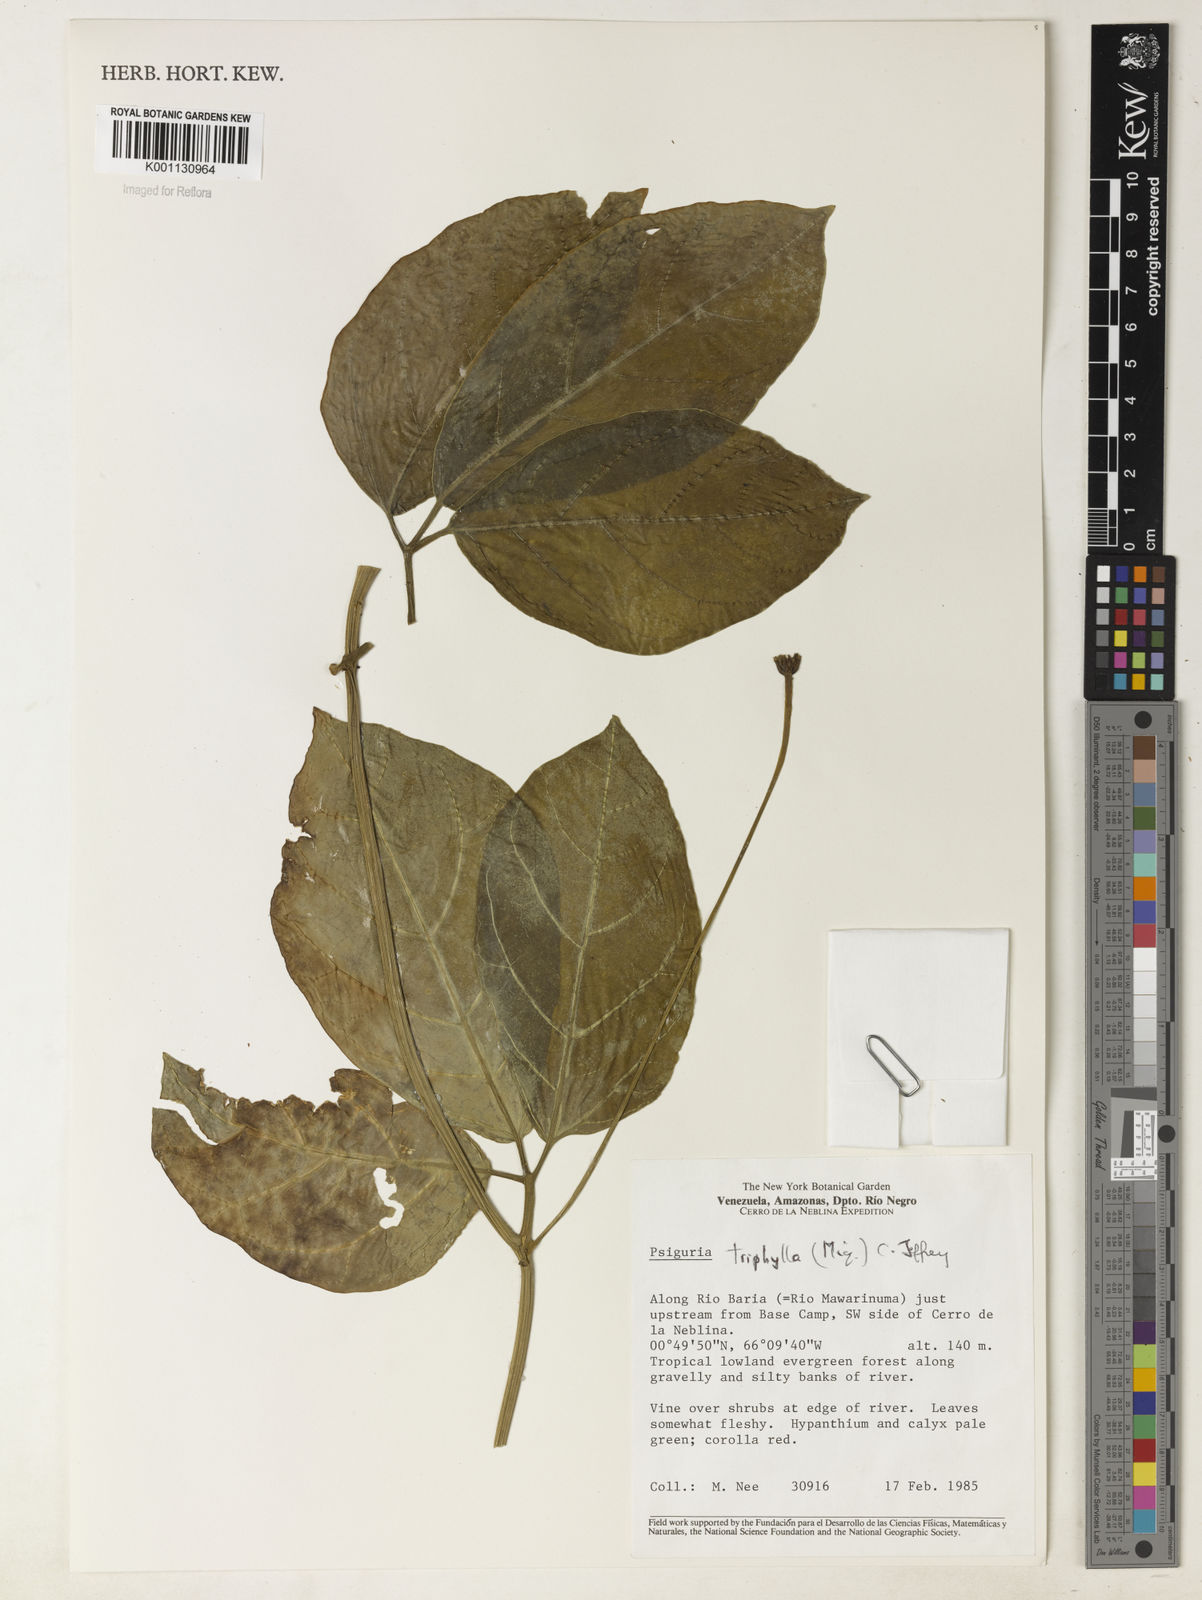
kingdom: Plantae
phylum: Tracheophyta
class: Magnoliopsida
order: Cucurbitales
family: Cucurbitaceae
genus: Psiguria
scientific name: Psiguria triphylla
